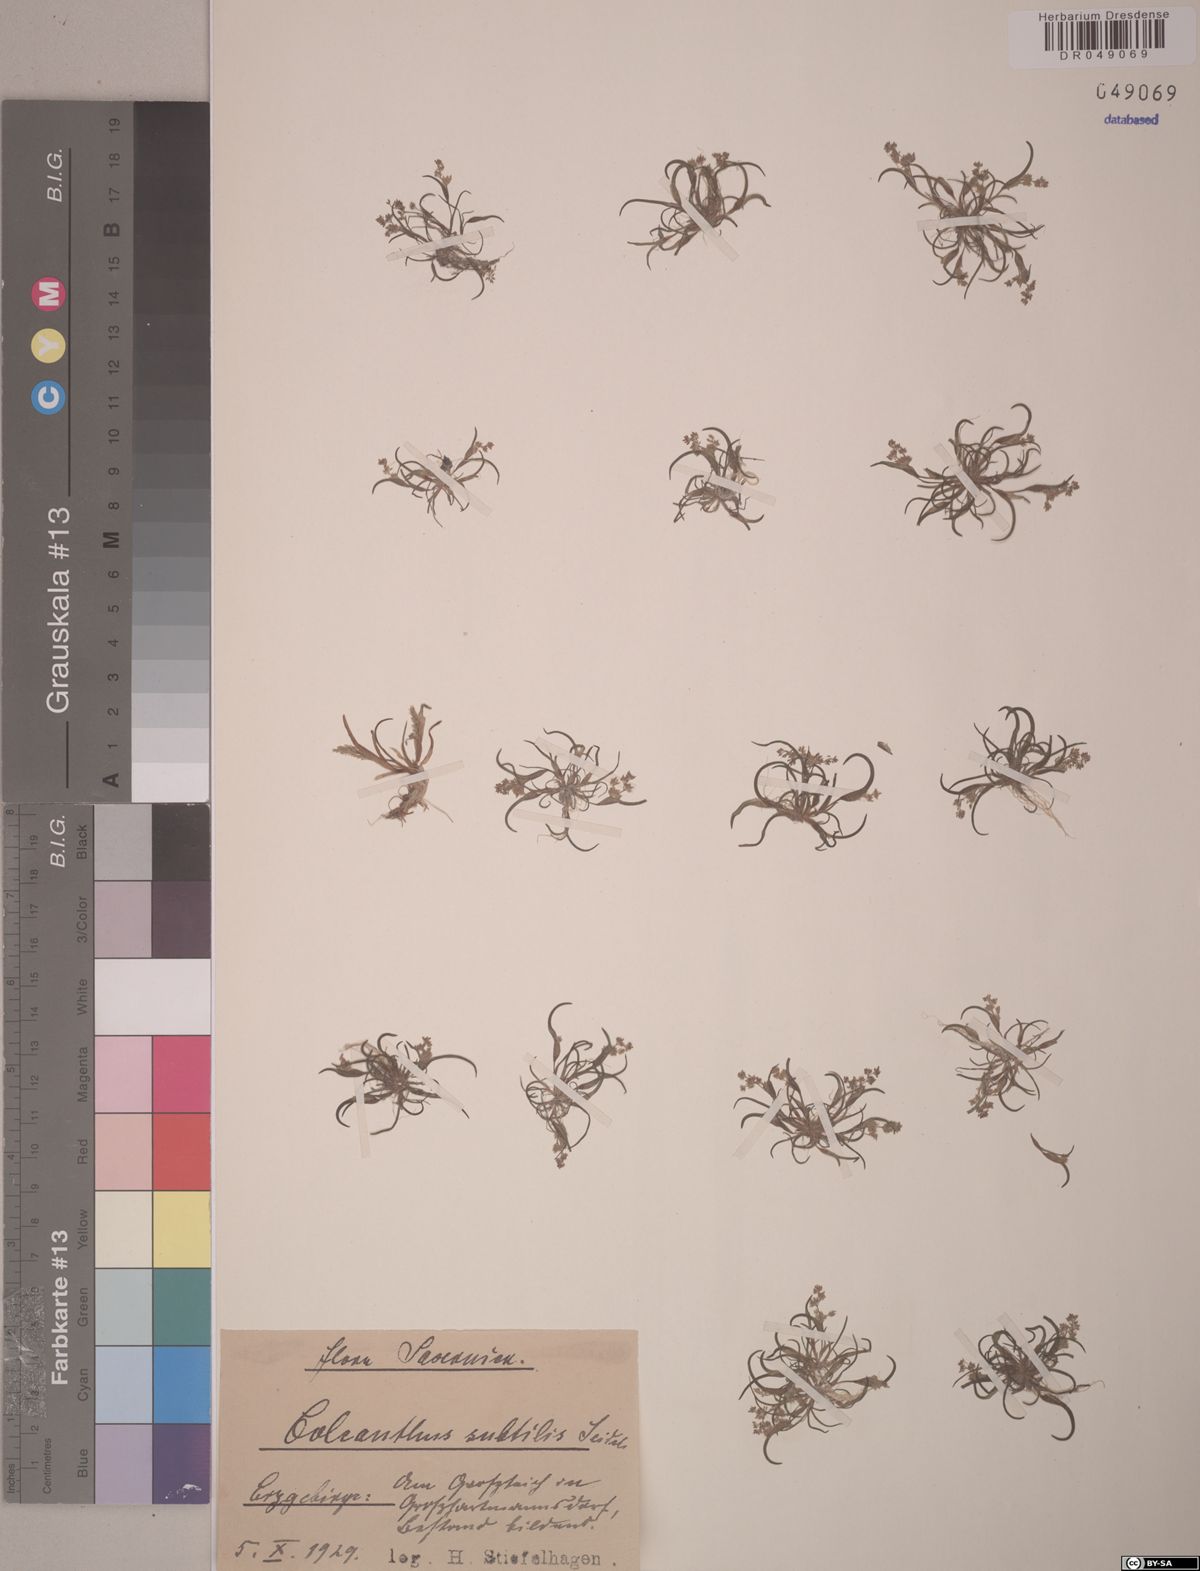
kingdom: Plantae
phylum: Tracheophyta
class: Liliopsida
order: Poales
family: Poaceae
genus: Coleanthus
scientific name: Coleanthus subtilis
